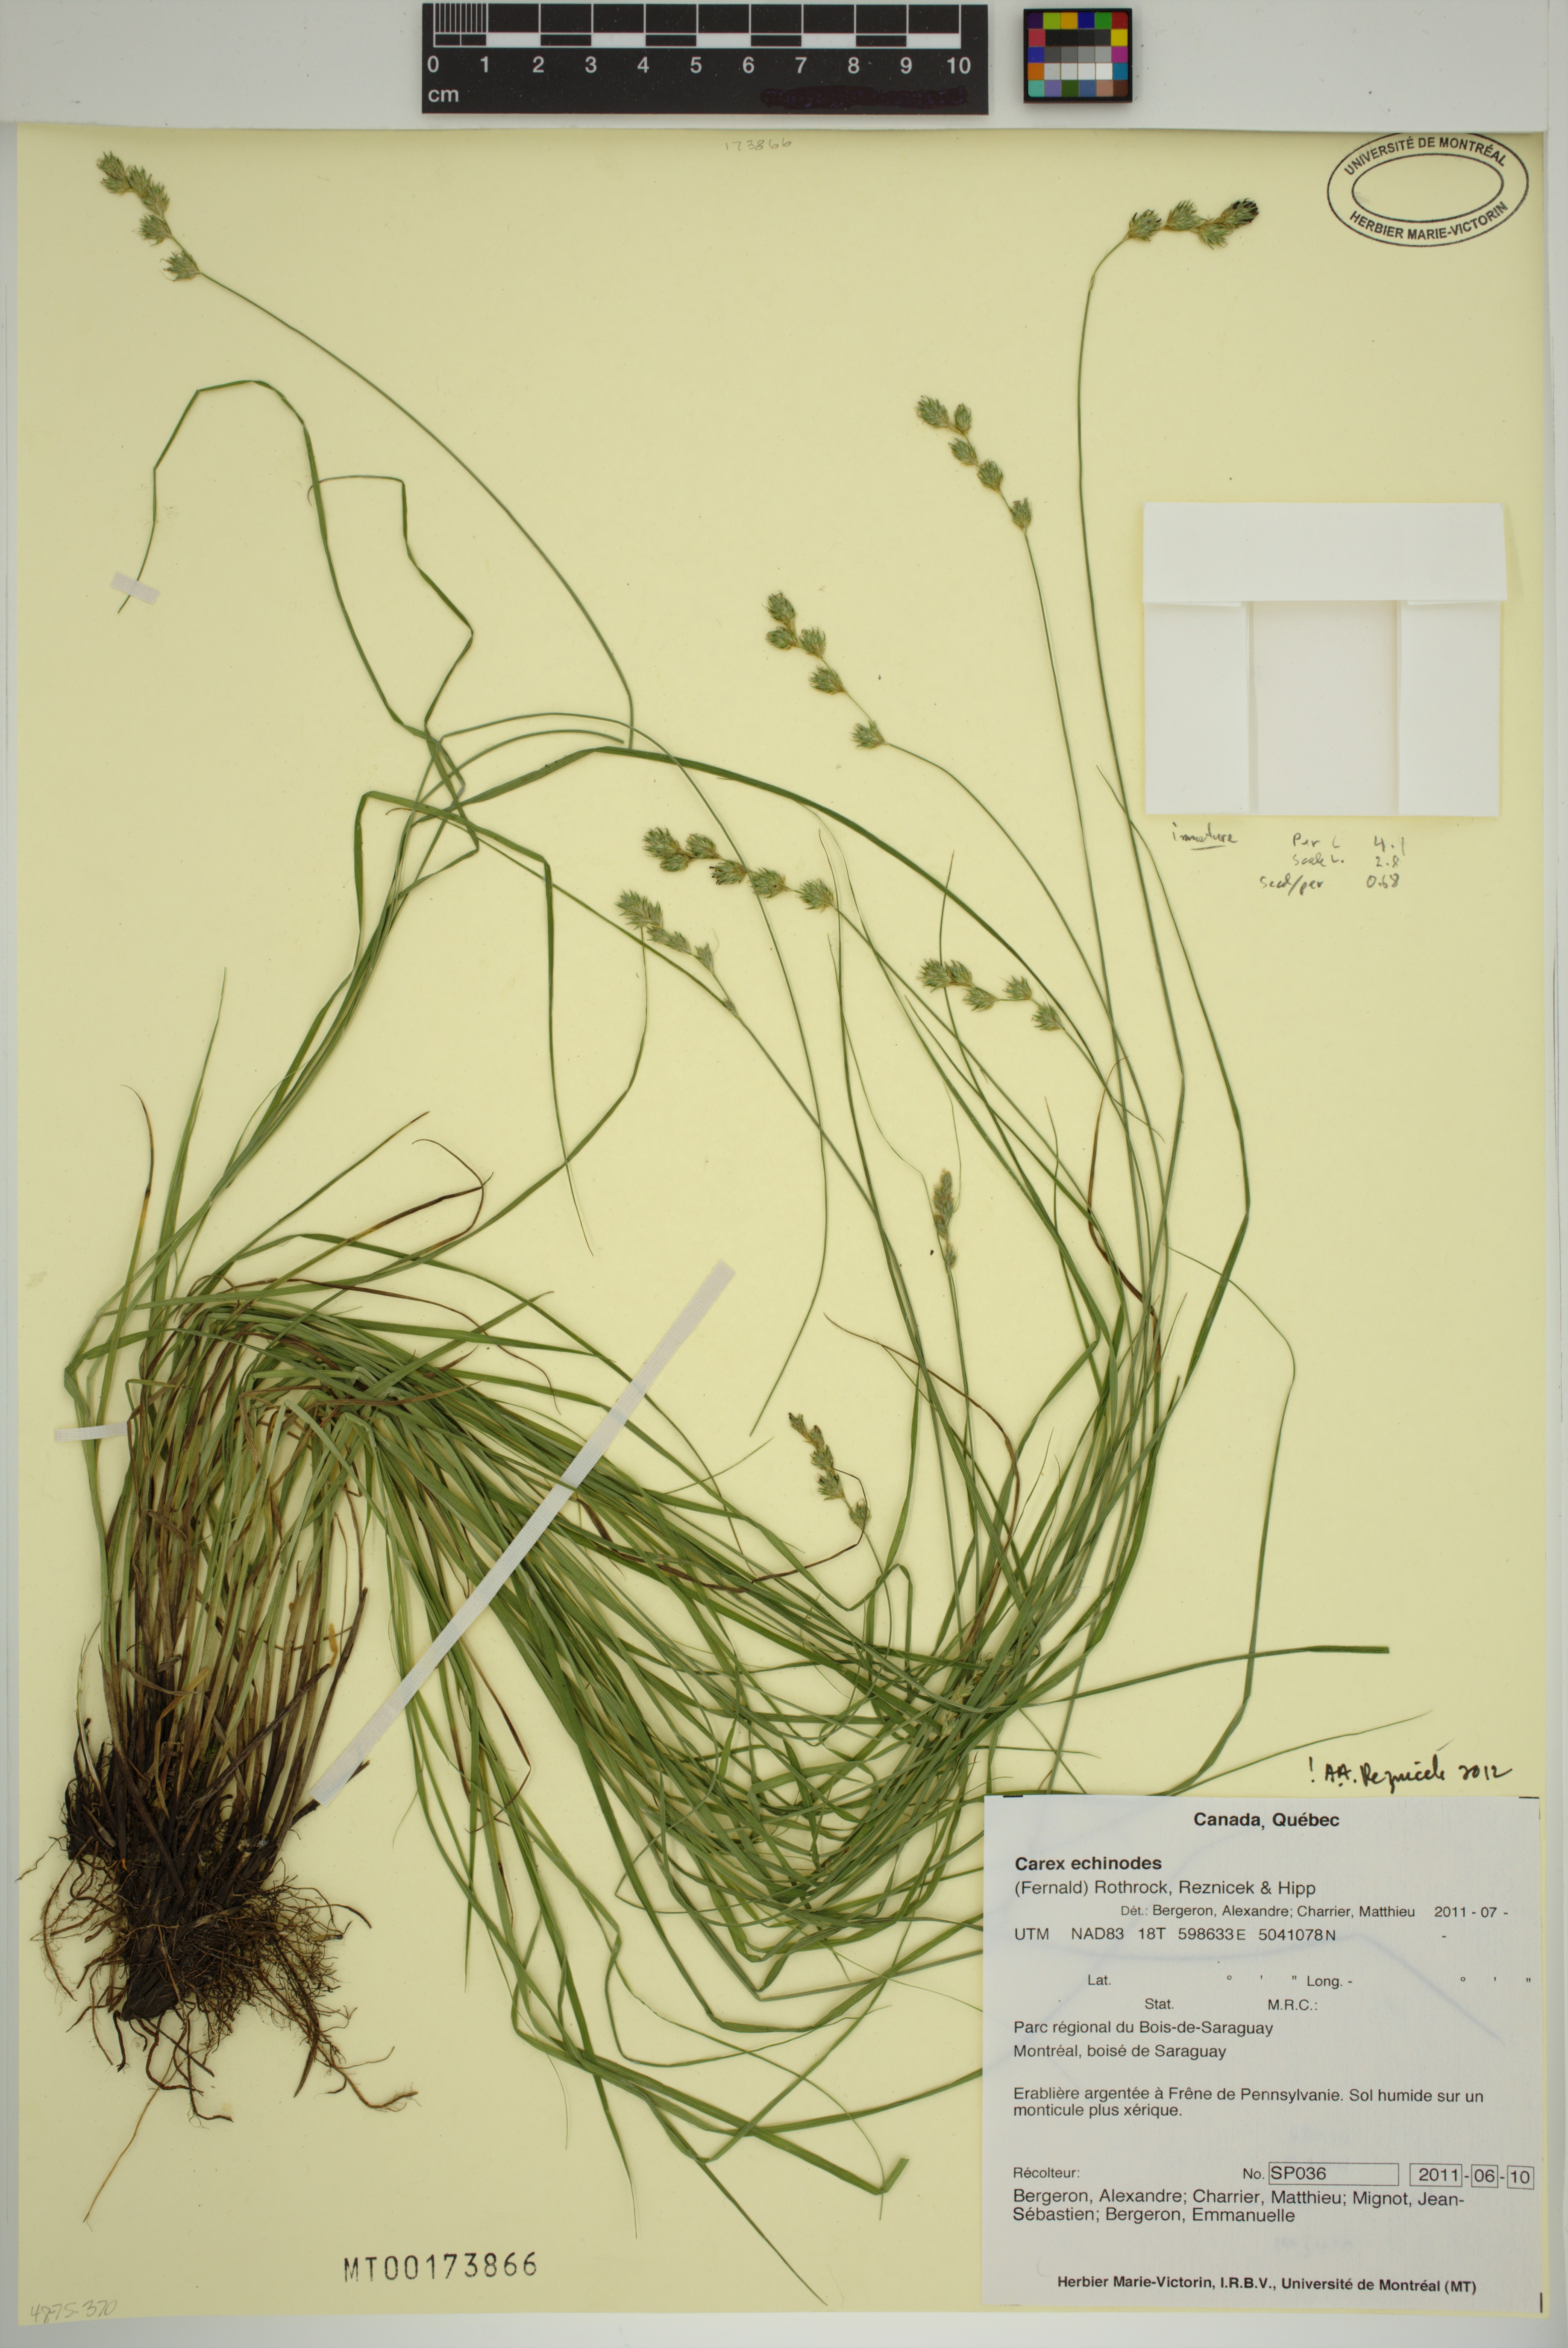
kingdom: Plantae
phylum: Tracheophyta
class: Liliopsida
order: Poales
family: Cyperaceae
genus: Carex
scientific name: Carex echinodes
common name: Marsh straw sedge
